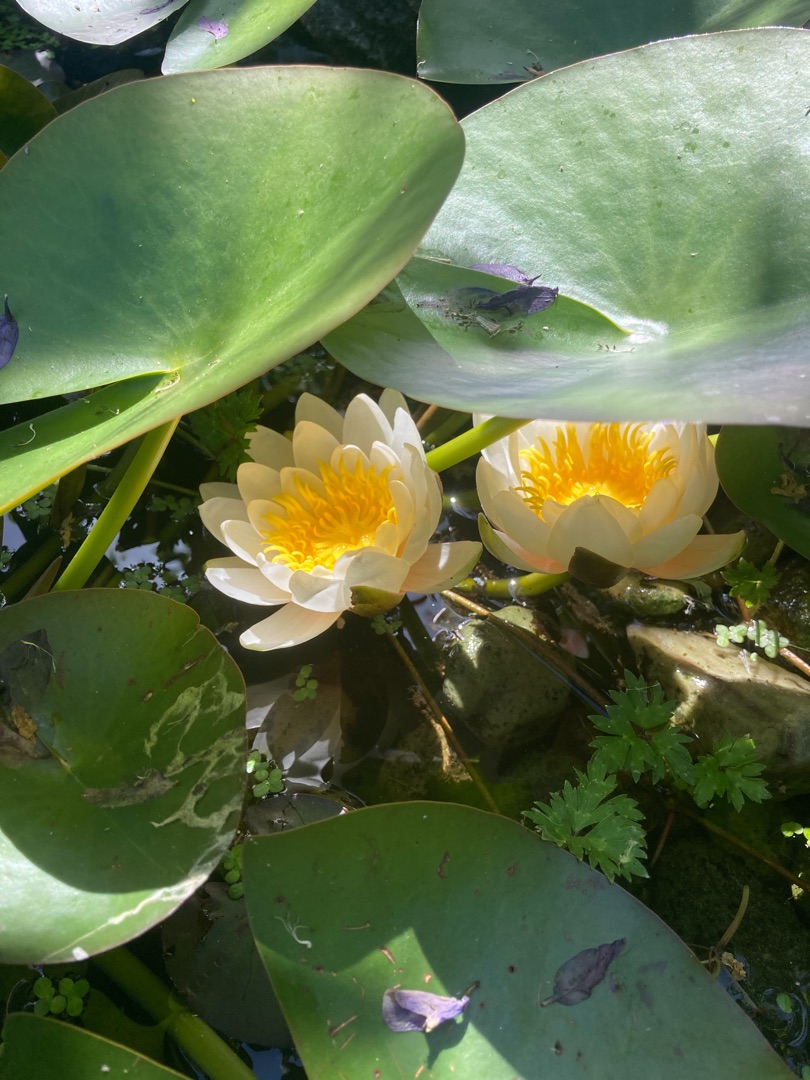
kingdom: Plantae
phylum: Tracheophyta
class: Magnoliopsida
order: Nymphaeales
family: Nymphaeaceae
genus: Nymphaea
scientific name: Nymphaea alba
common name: Hvid åkande
